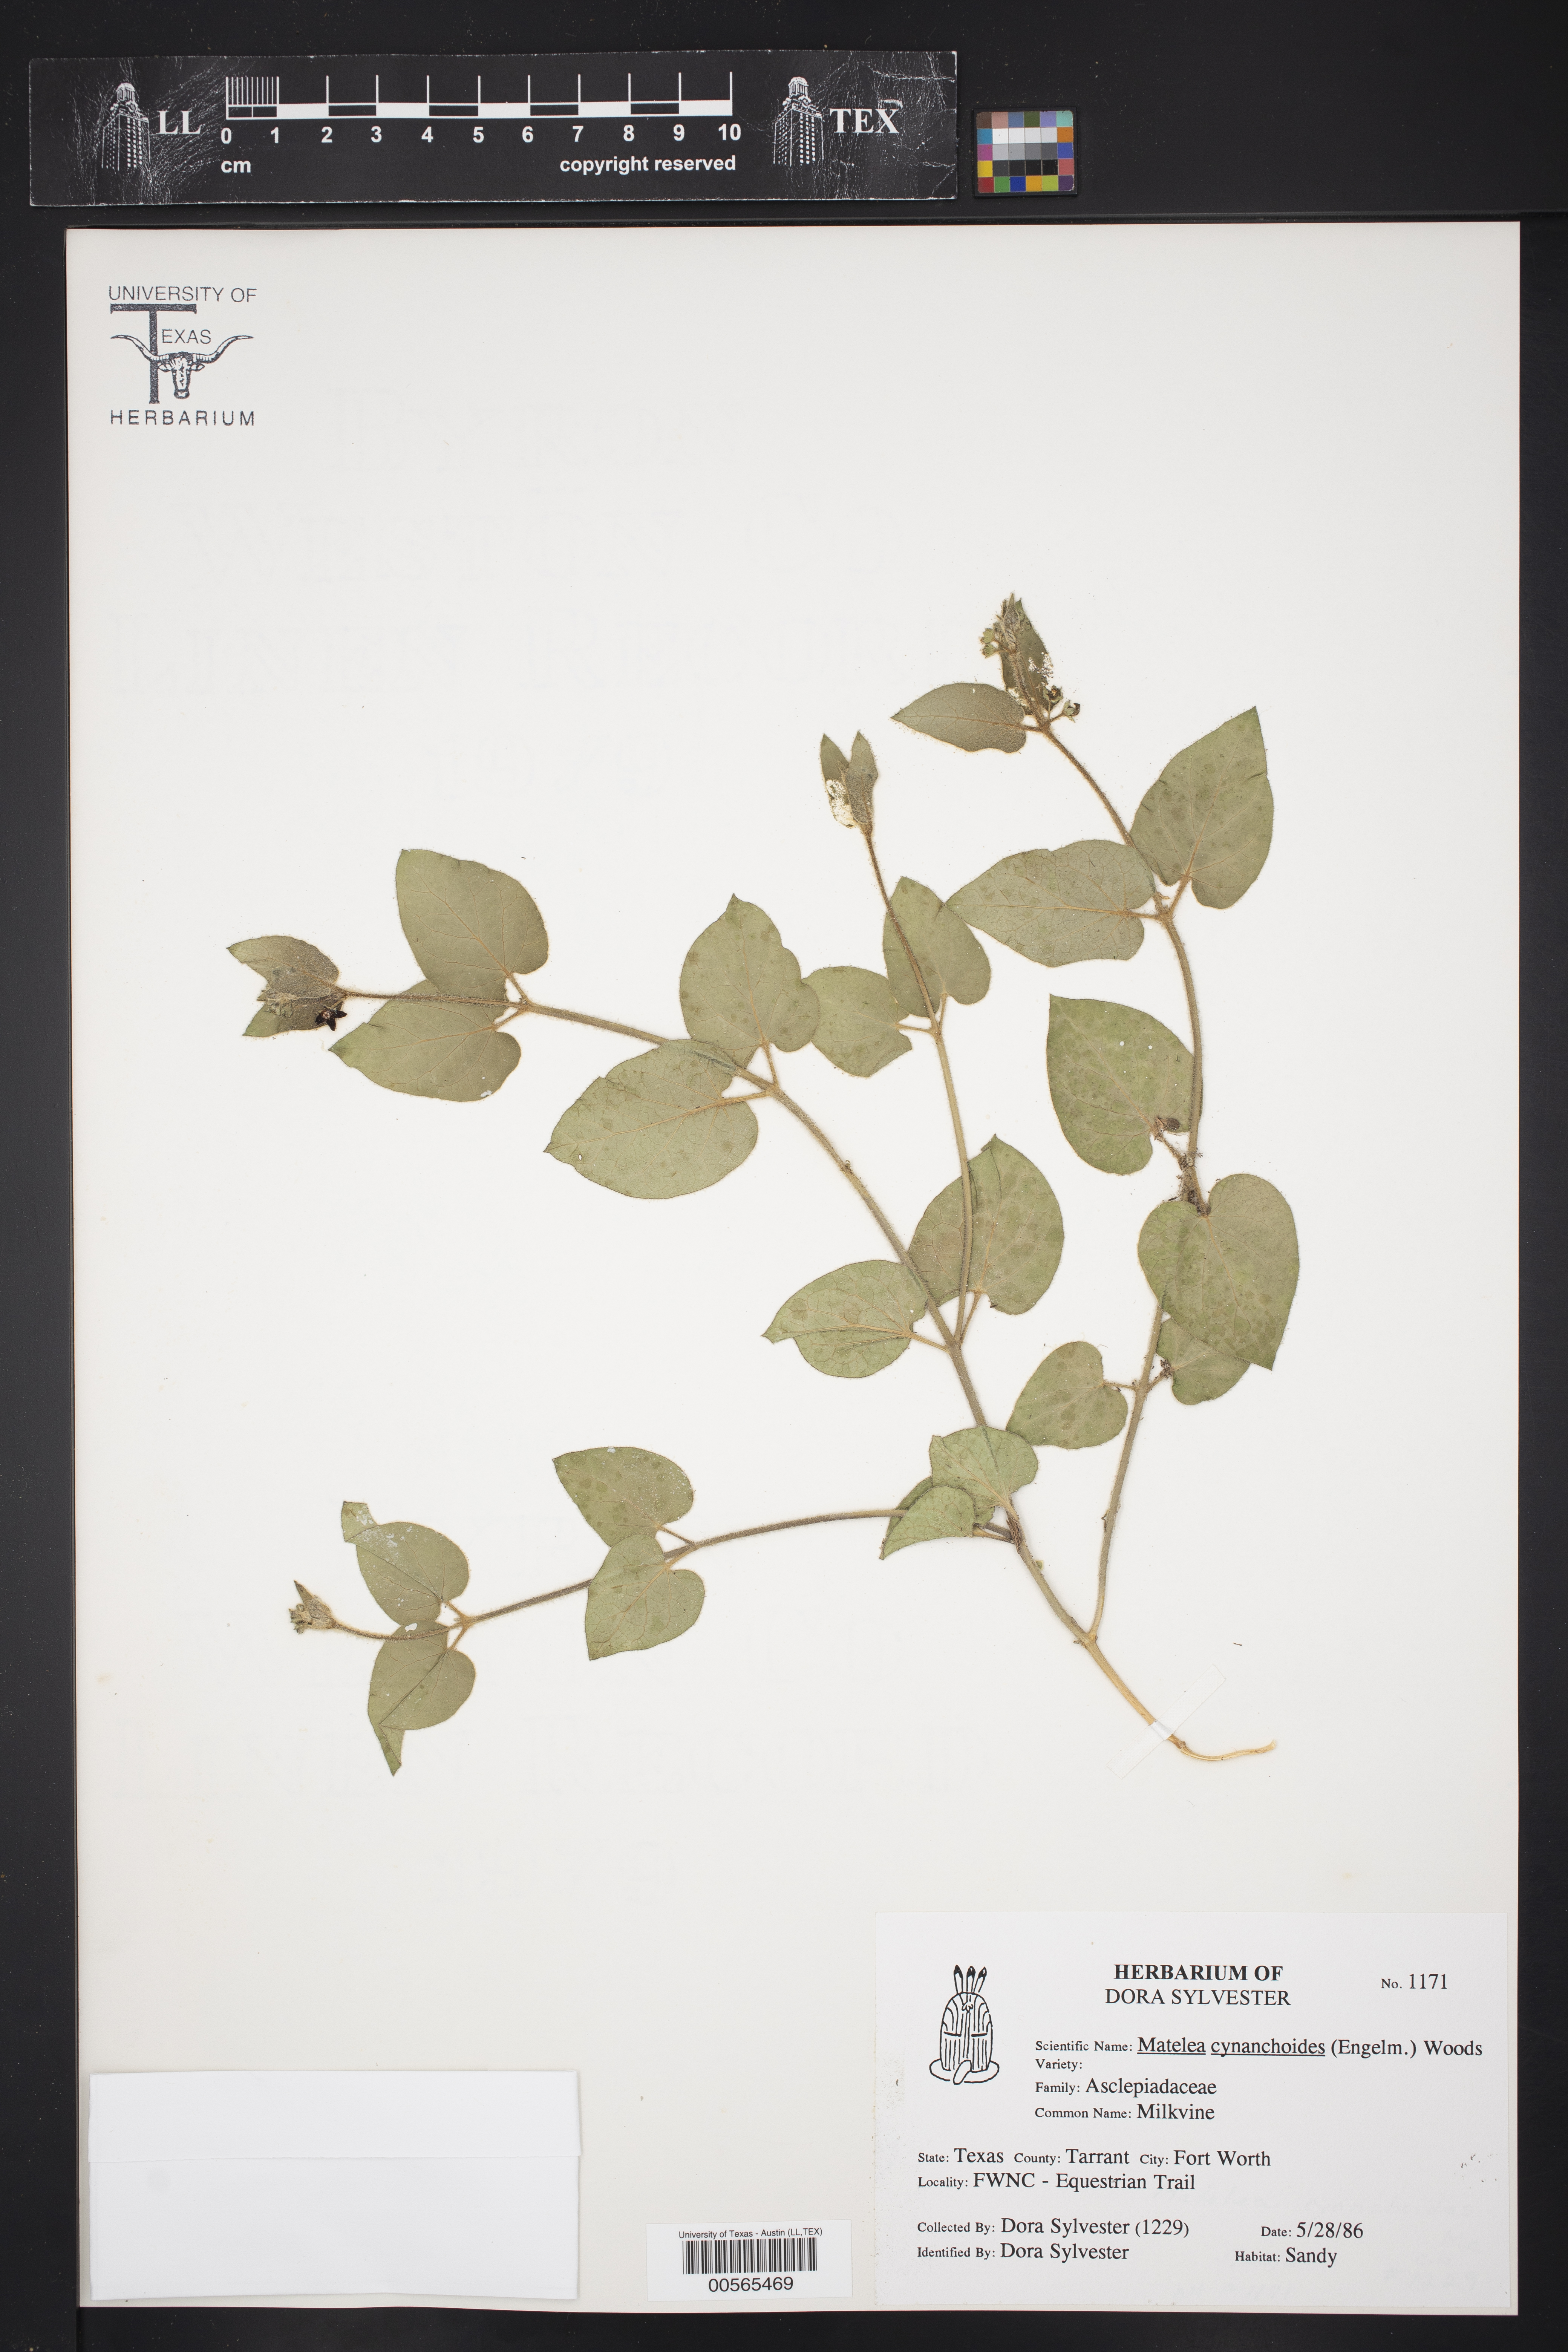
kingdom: Plantae
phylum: Tracheophyta
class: Magnoliopsida
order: Gentianales
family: Apocynaceae
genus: Matelea
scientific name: Matelea cynanchoides
